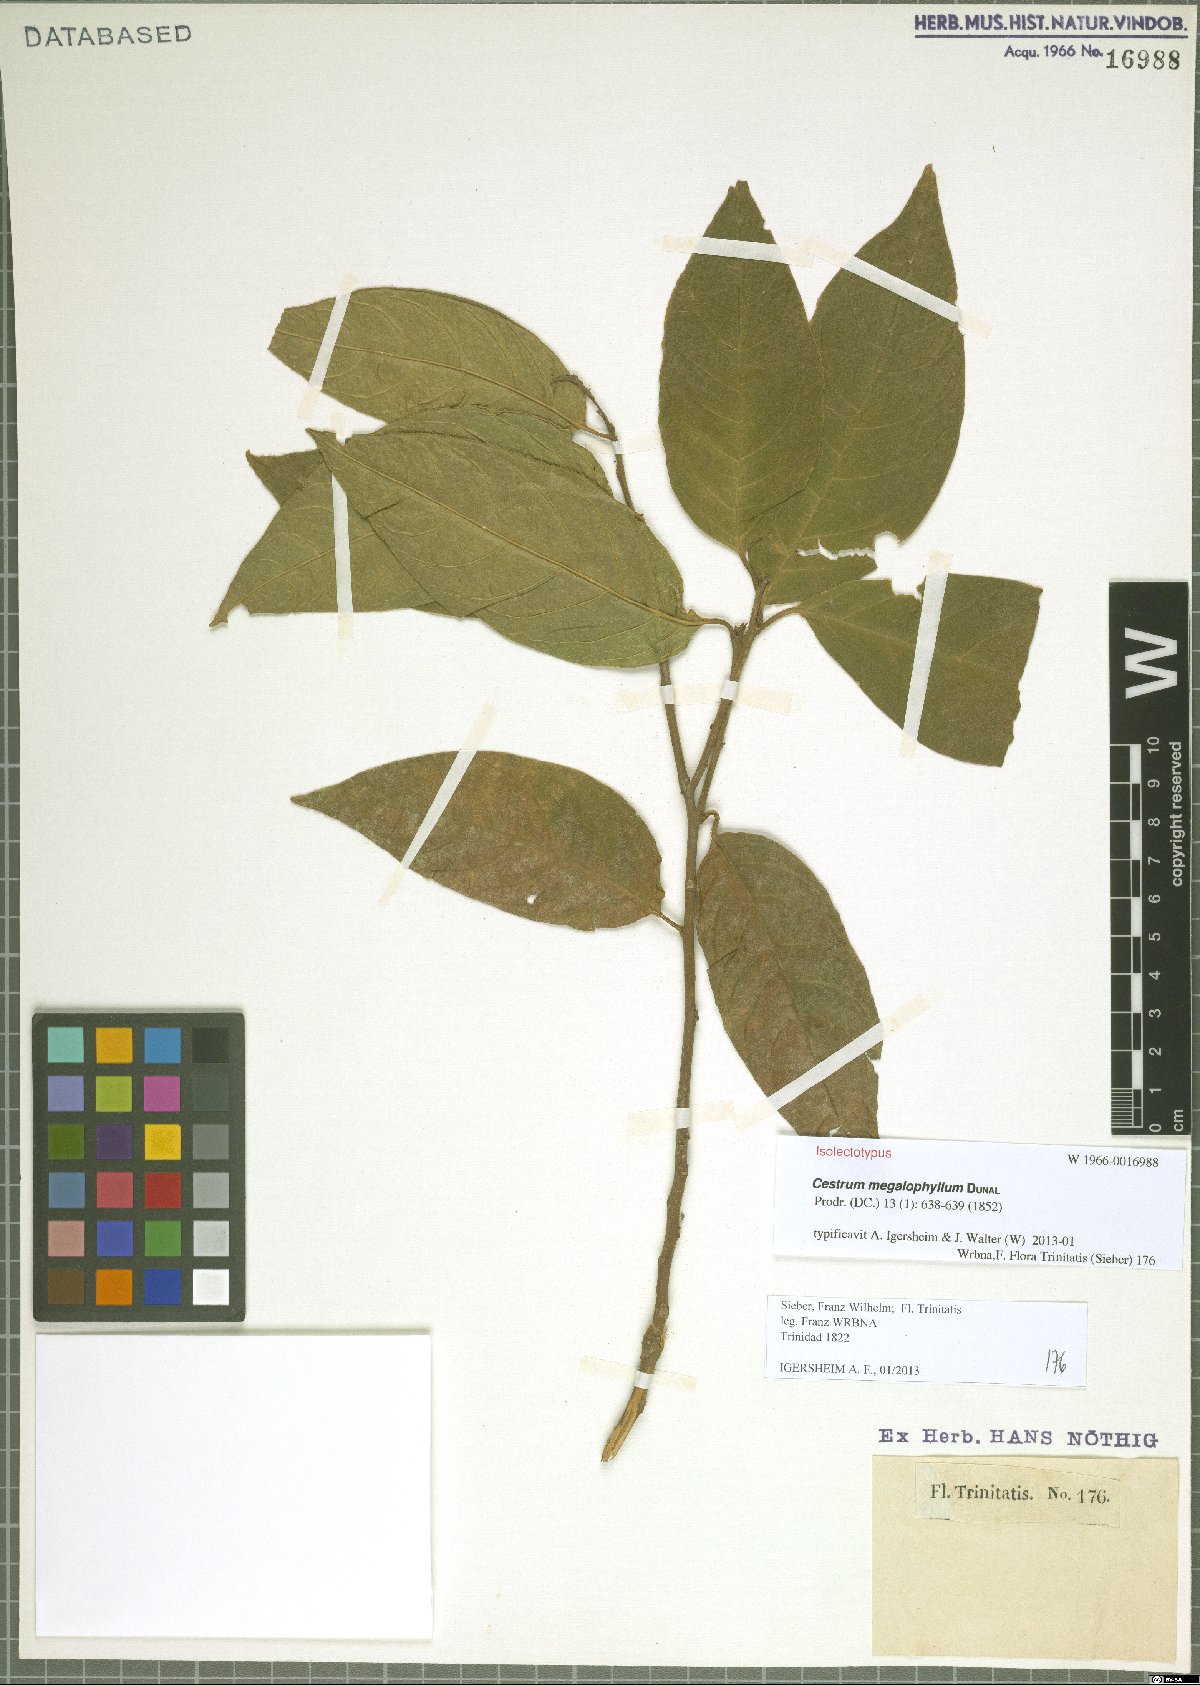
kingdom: Plantae
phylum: Tracheophyta
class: Magnoliopsida
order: Solanales
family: Solanaceae
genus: Cestrum
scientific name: Cestrum megalophyllum
